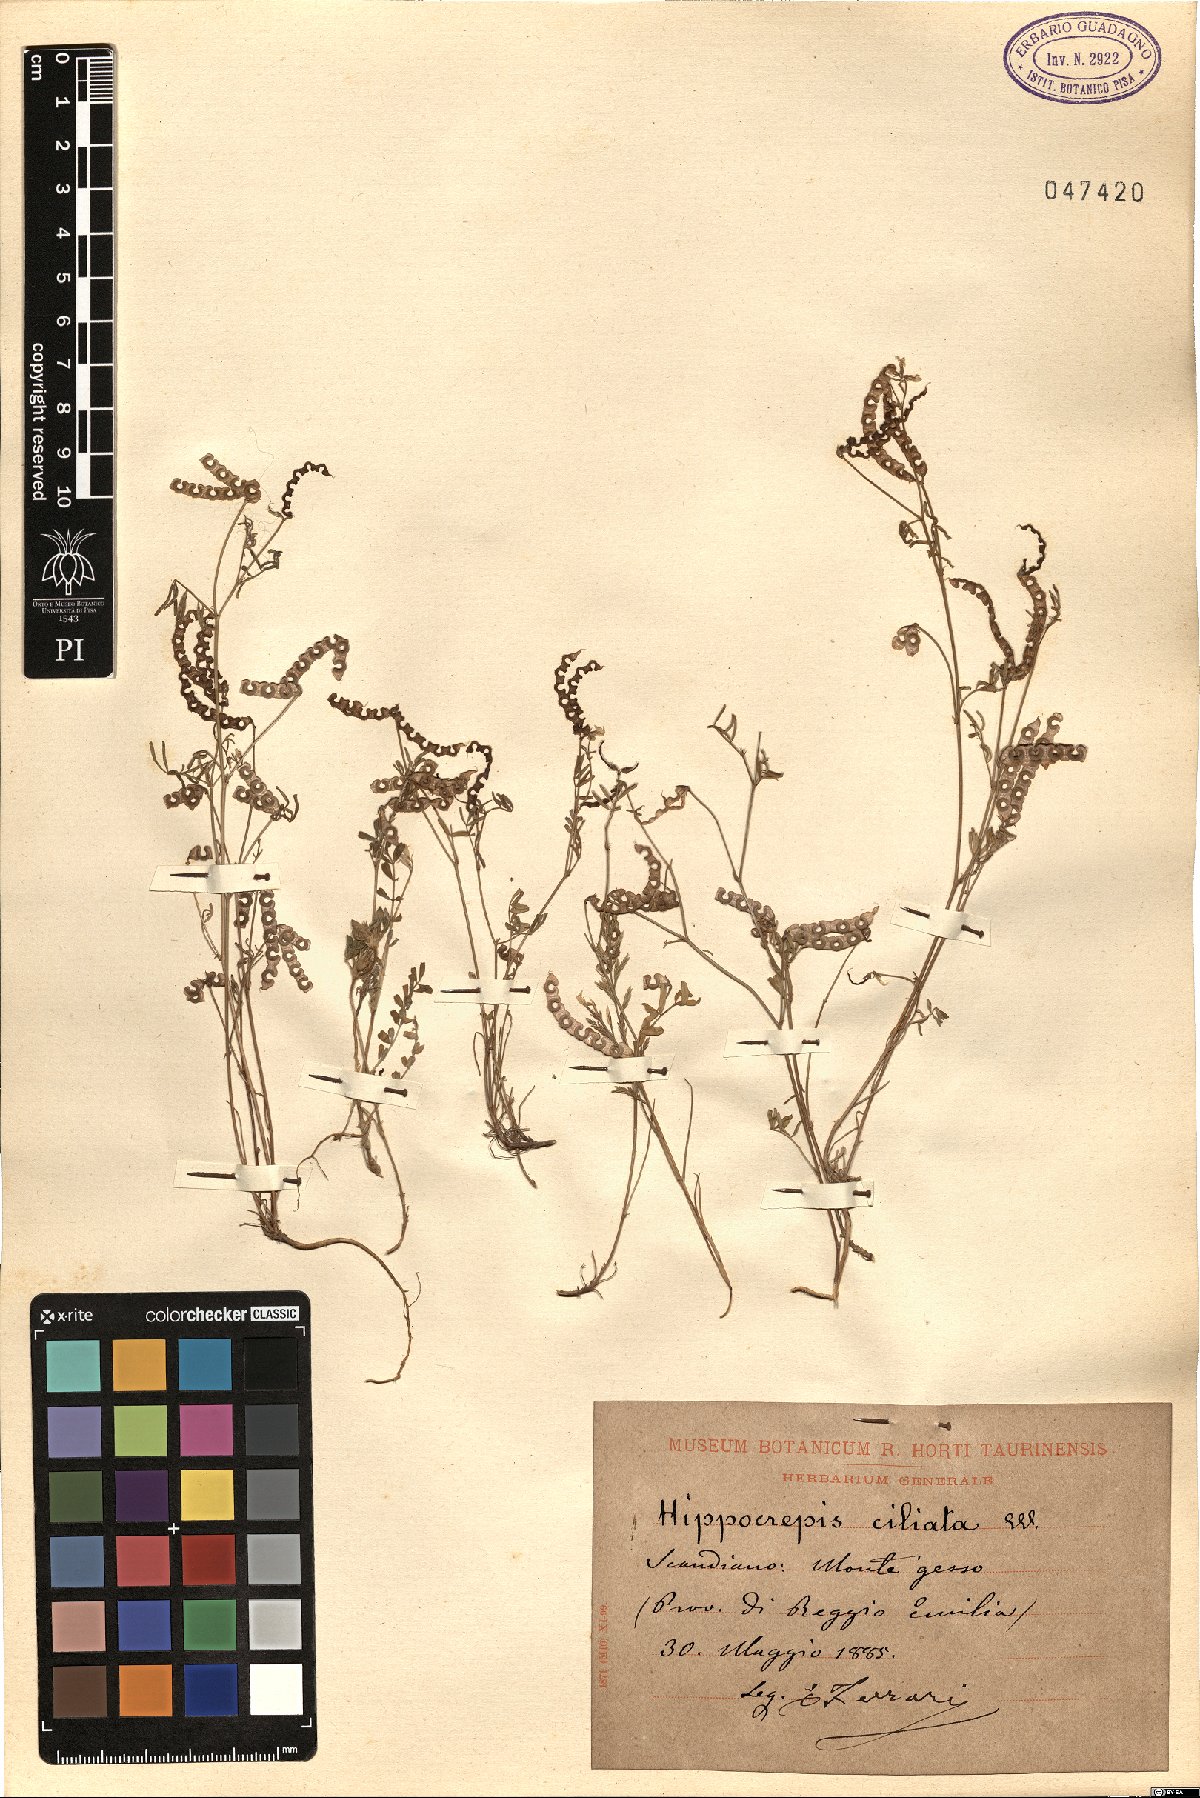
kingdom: Plantae
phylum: Tracheophyta
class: Magnoliopsida
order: Fabales
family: Fabaceae
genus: Hippocrepis
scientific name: Hippocrepis ciliata
